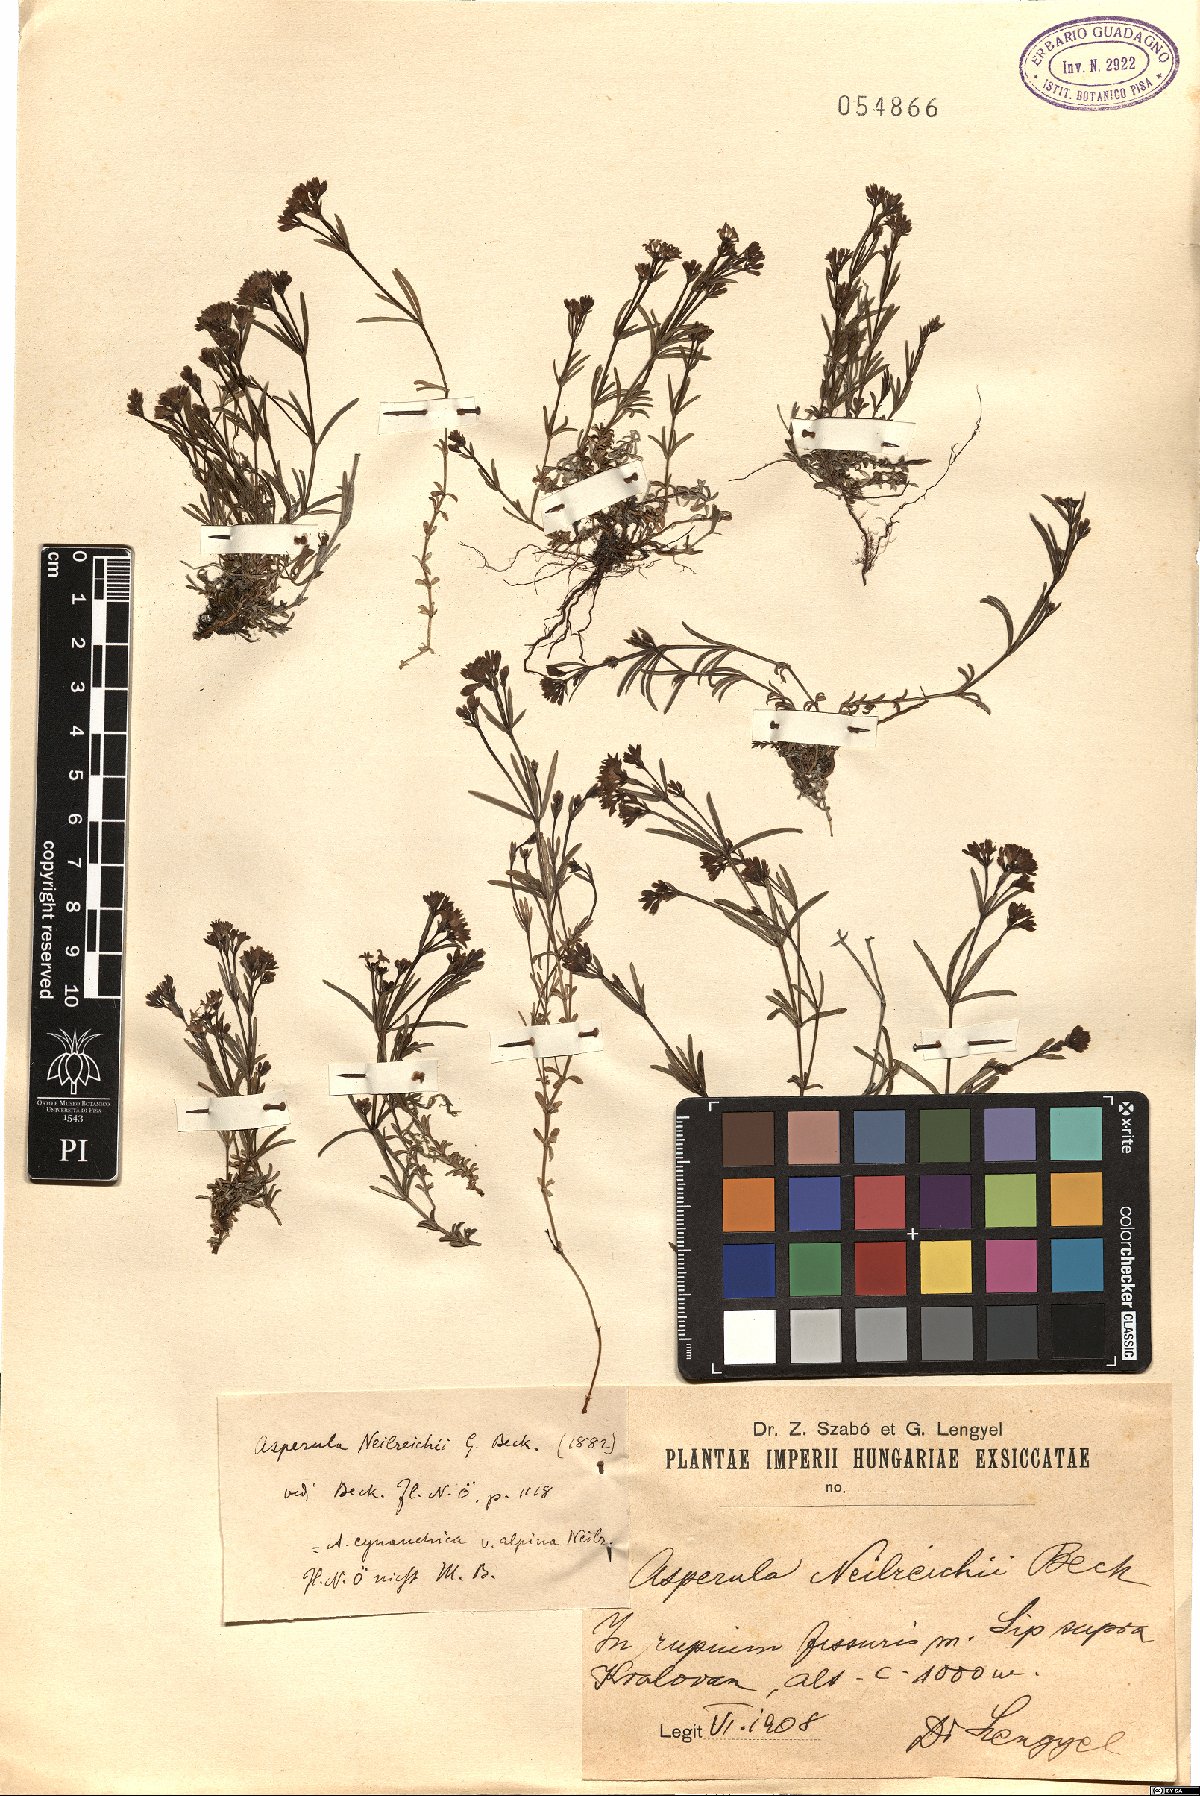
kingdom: Plantae
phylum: Tracheophyta
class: Magnoliopsida
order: Gentianales
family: Rubiaceae
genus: Cynanchica
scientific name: Cynanchica neilreichii
